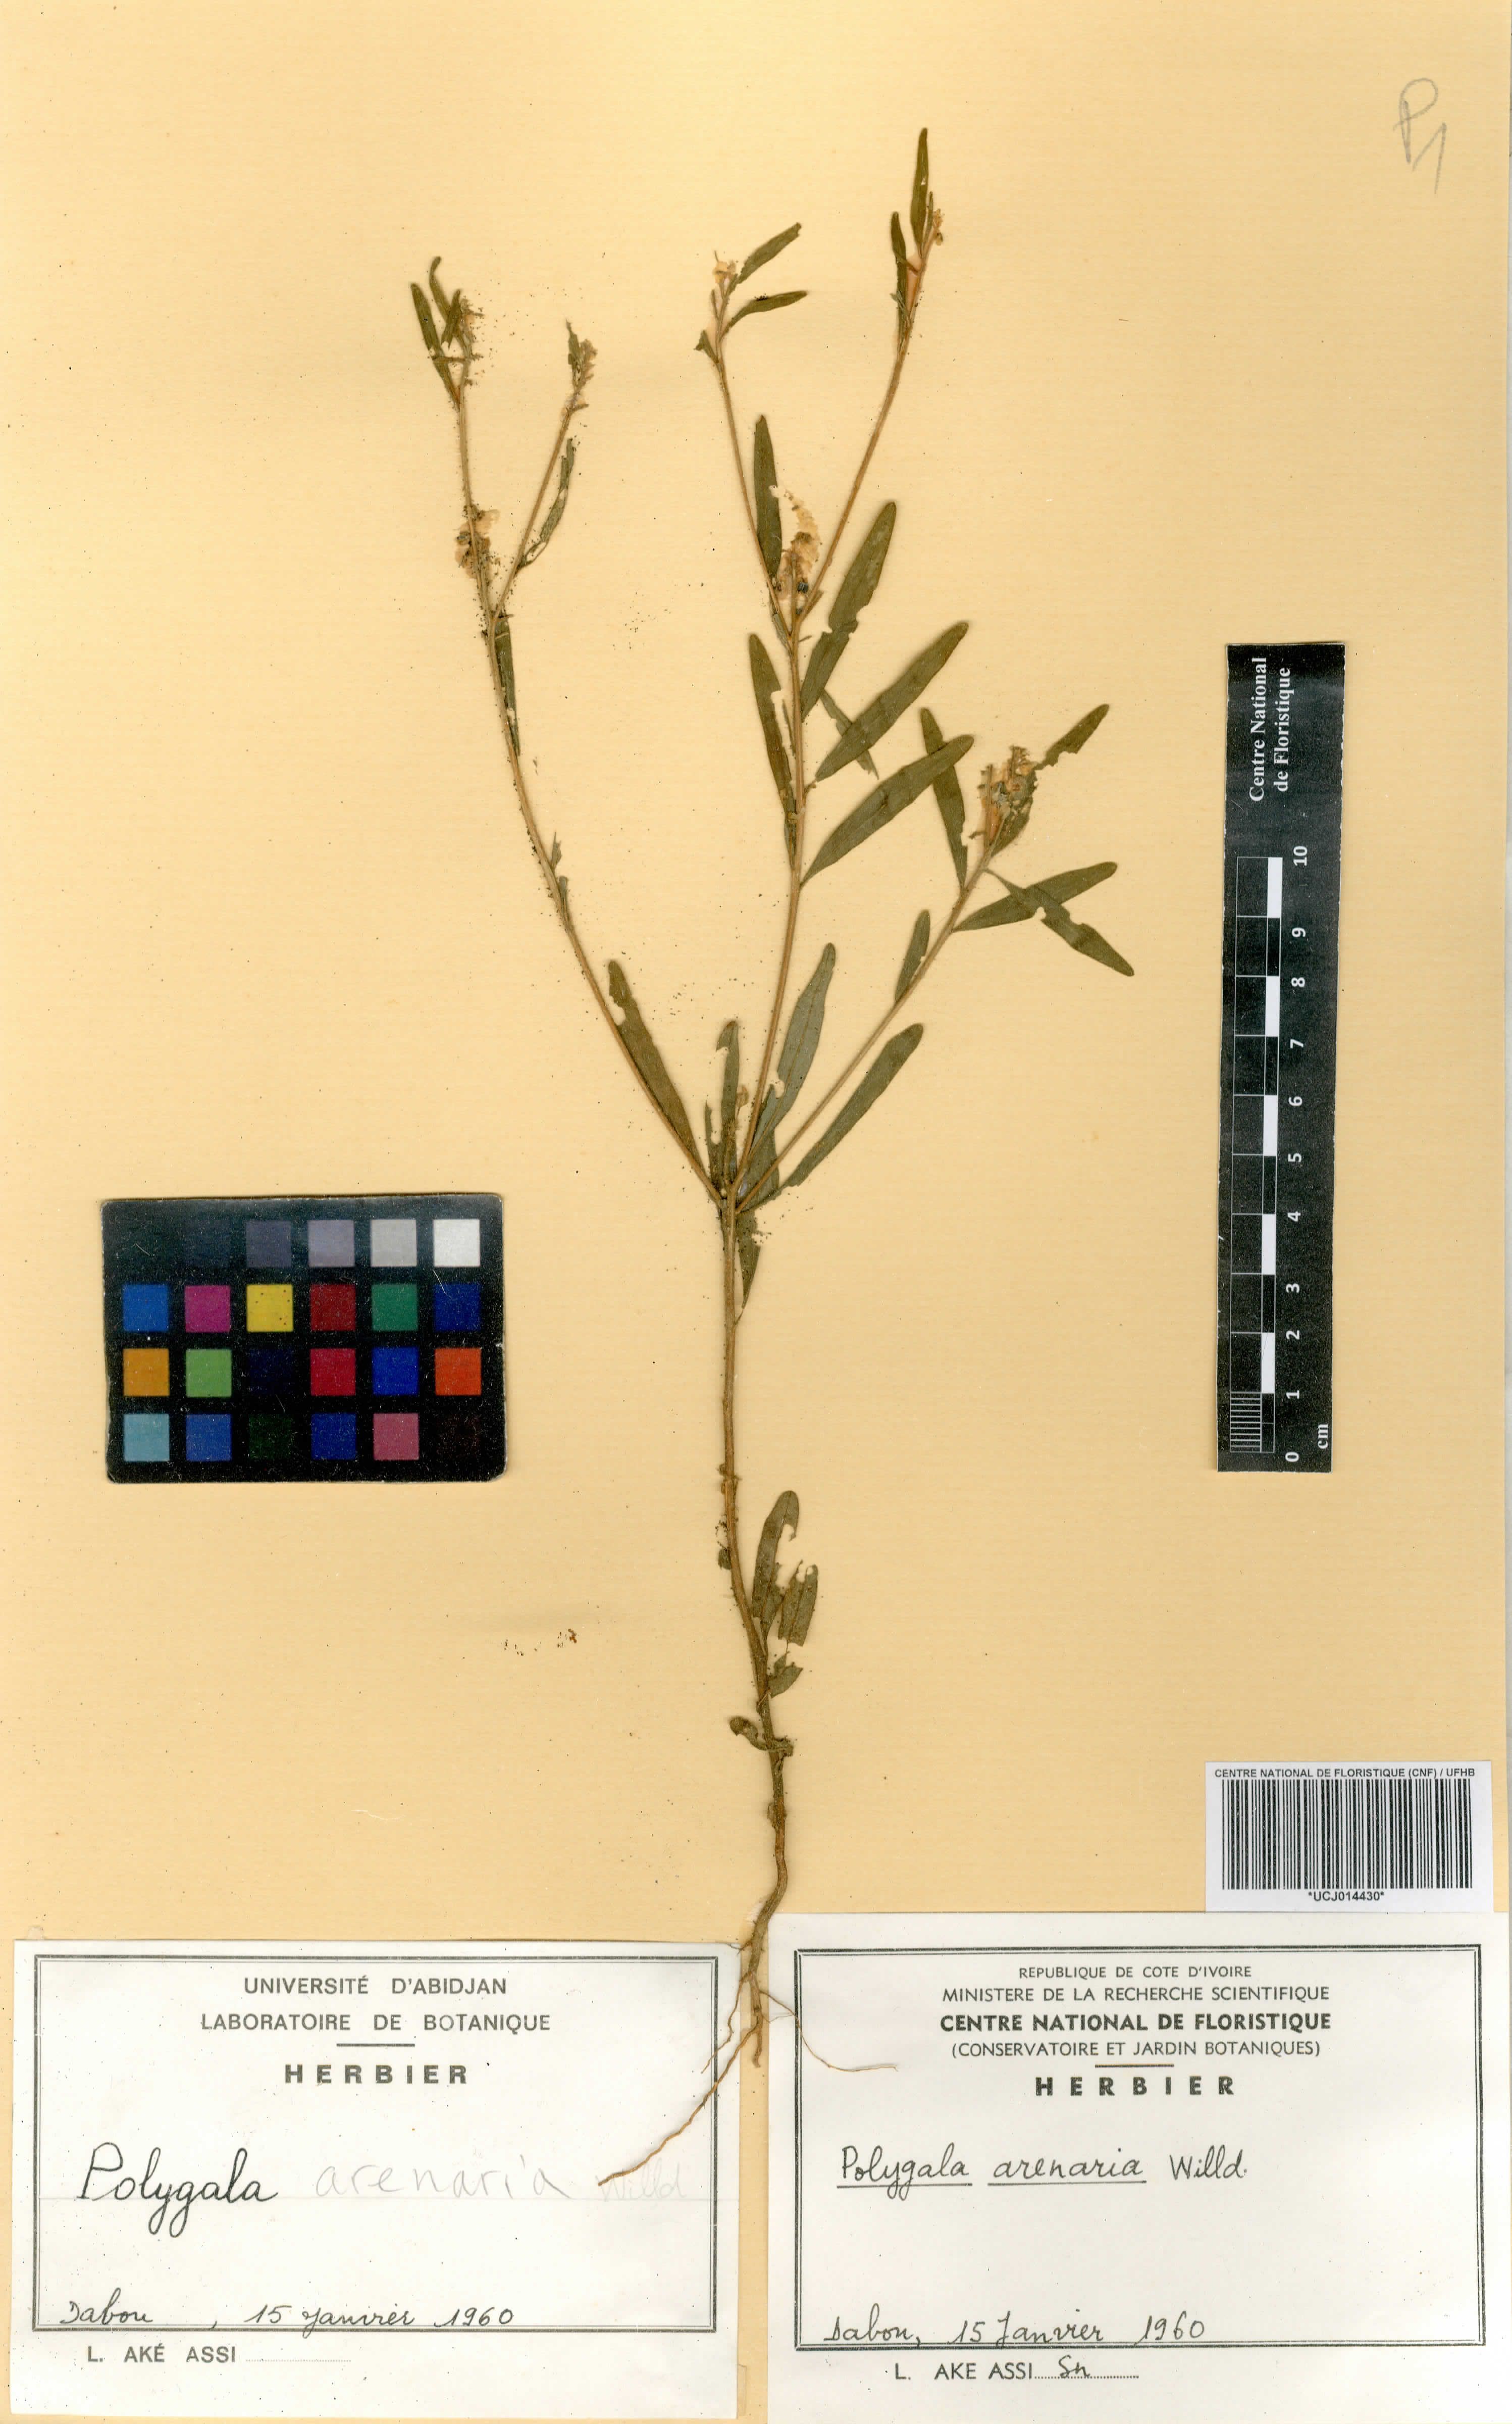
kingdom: Plantae
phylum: Tracheophyta
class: Magnoliopsida
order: Fabales
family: Polygalaceae
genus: Polygala
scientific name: Polygala arenaria
